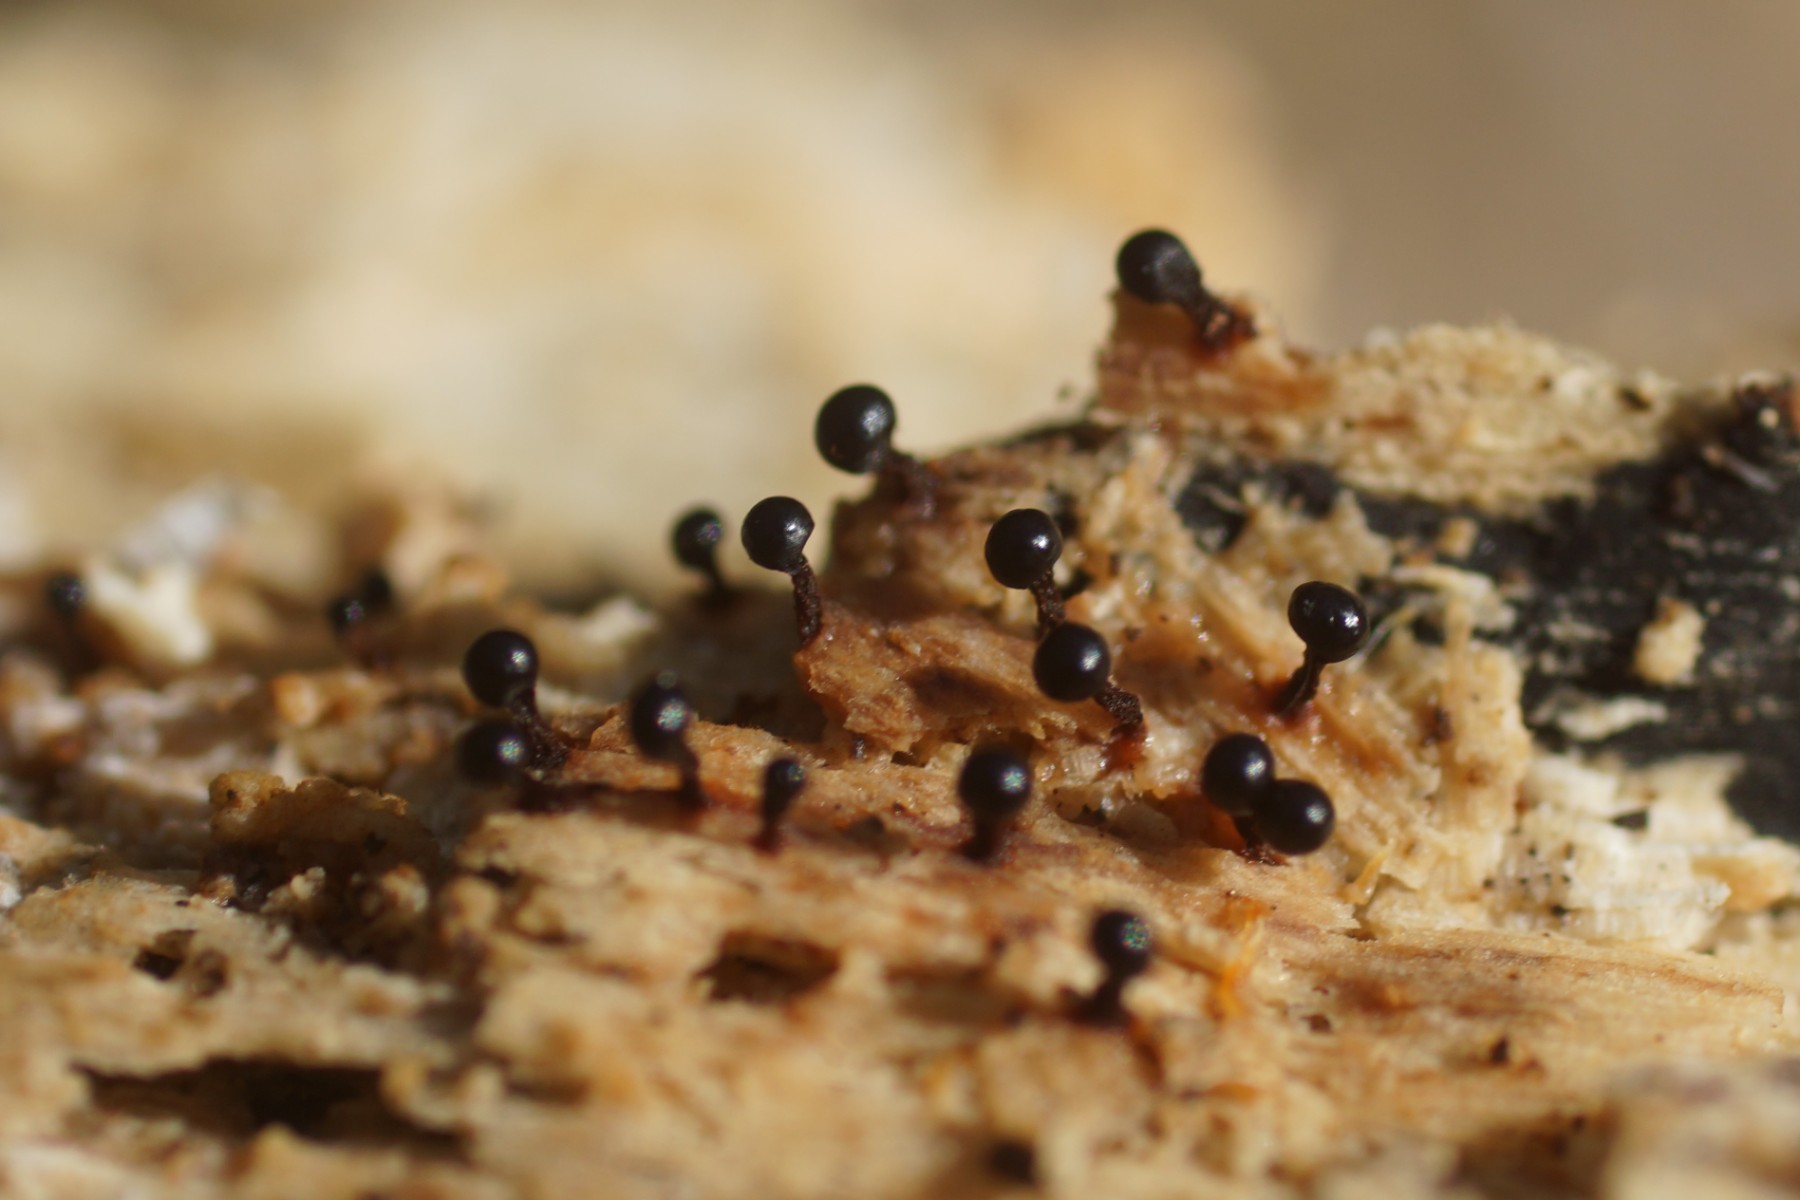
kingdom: Protozoa
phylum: Mycetozoa
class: Myxomycetes
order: Trichiales
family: Trichiaceae
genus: Metatrichia
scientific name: Metatrichia floriformis
